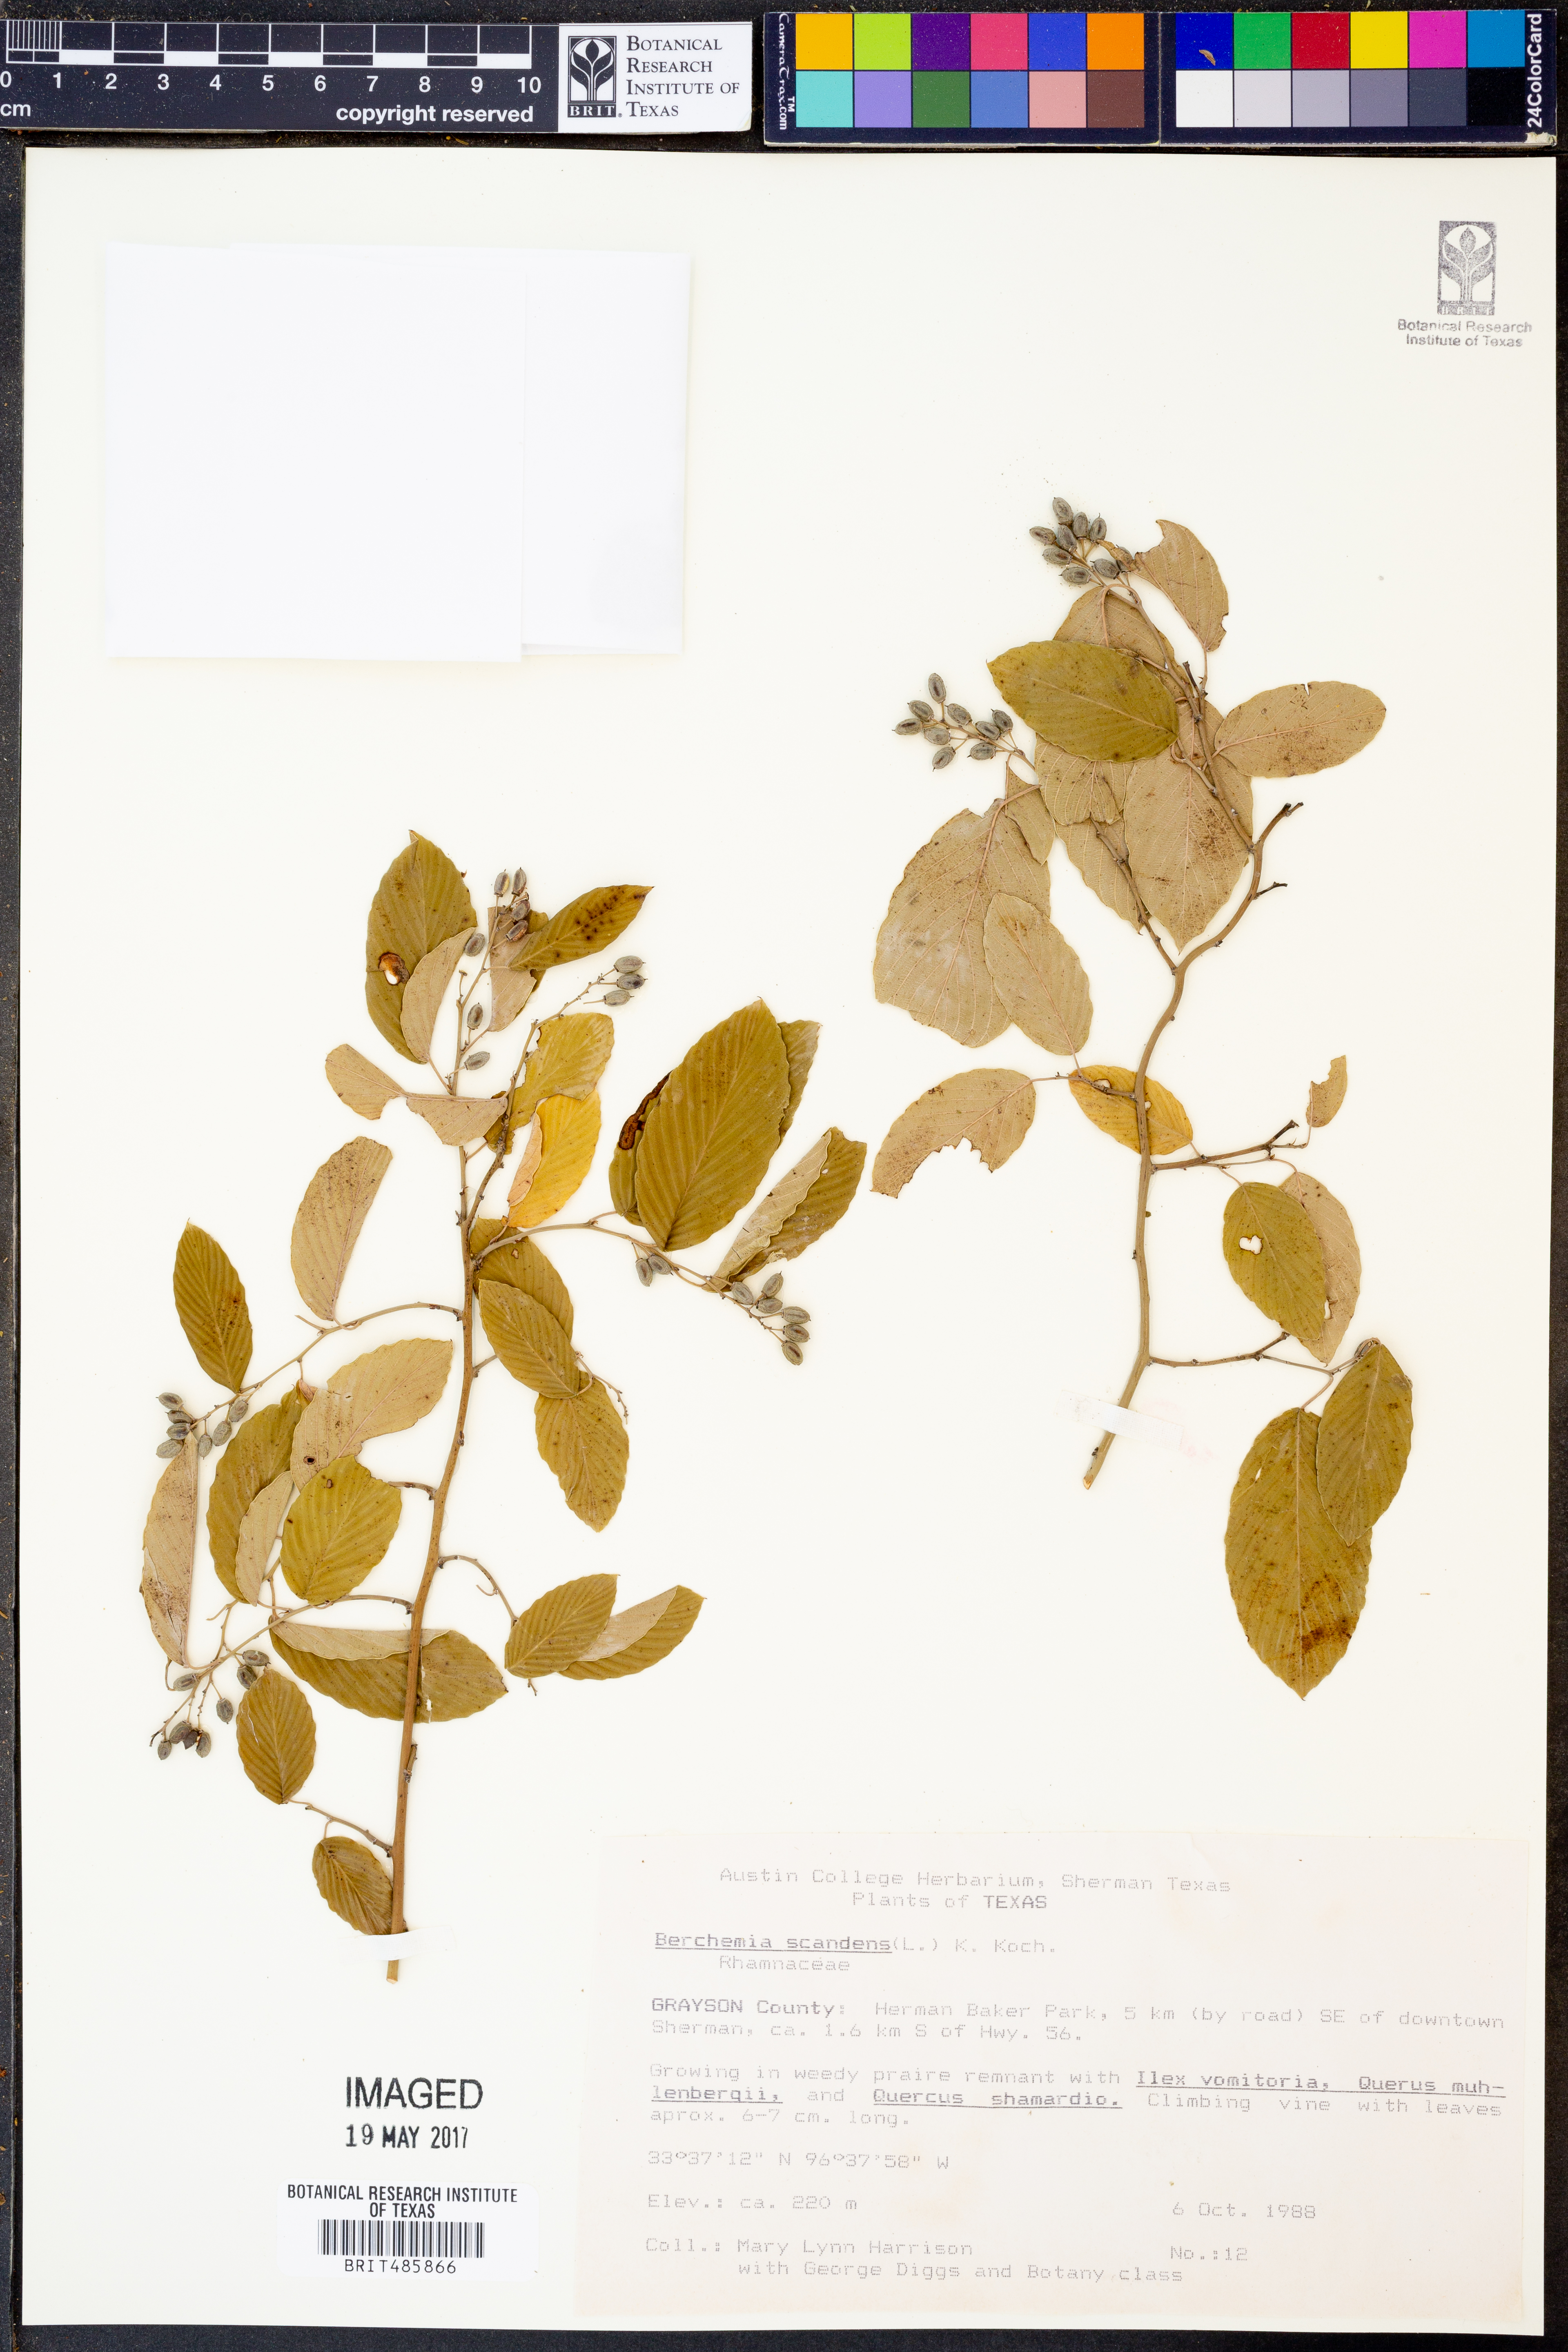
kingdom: Plantae
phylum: Tracheophyta
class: Magnoliopsida
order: Rosales
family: Rhamnaceae
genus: Berchemia
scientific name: Berchemia scandens
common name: Supplejack
